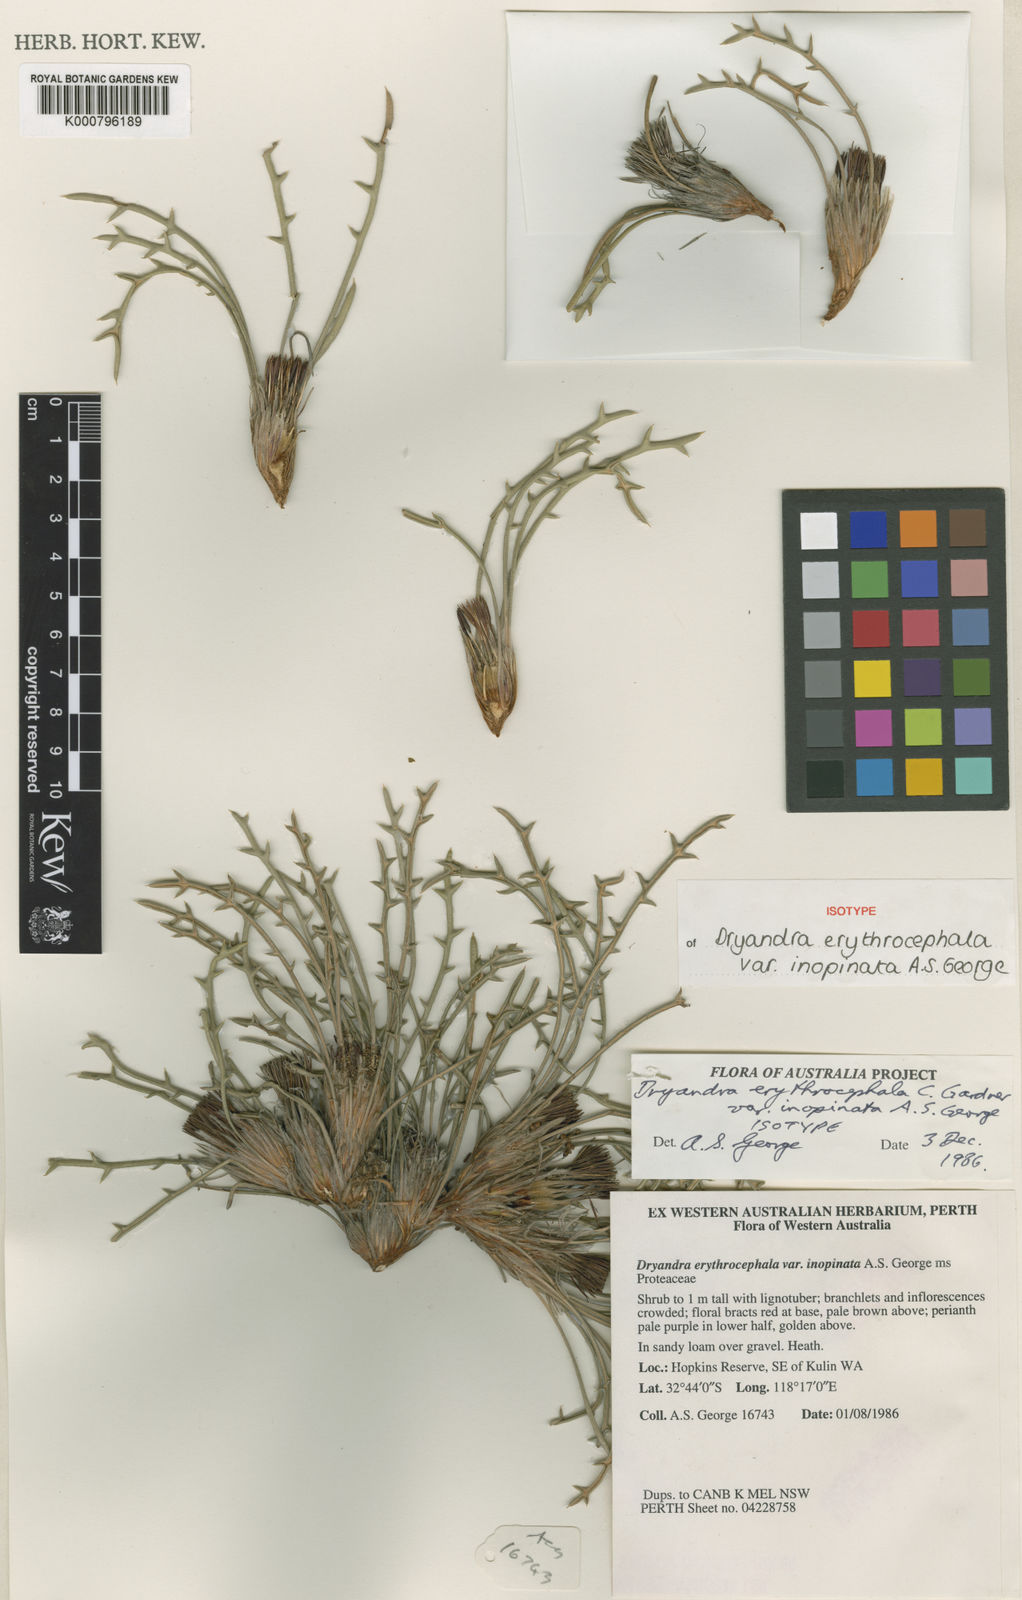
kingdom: Plantae
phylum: Tracheophyta
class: Magnoliopsida
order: Proteales
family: Proteaceae
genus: Banksia
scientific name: Banksia erythrocephala
